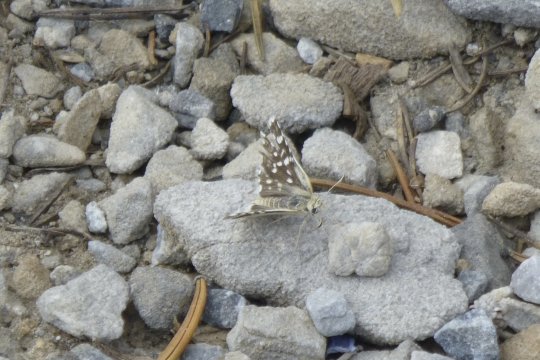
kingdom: Animalia
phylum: Arthropoda
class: Insecta
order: Lepidoptera
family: Hesperiidae
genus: Burnsius
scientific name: Burnsius communis
